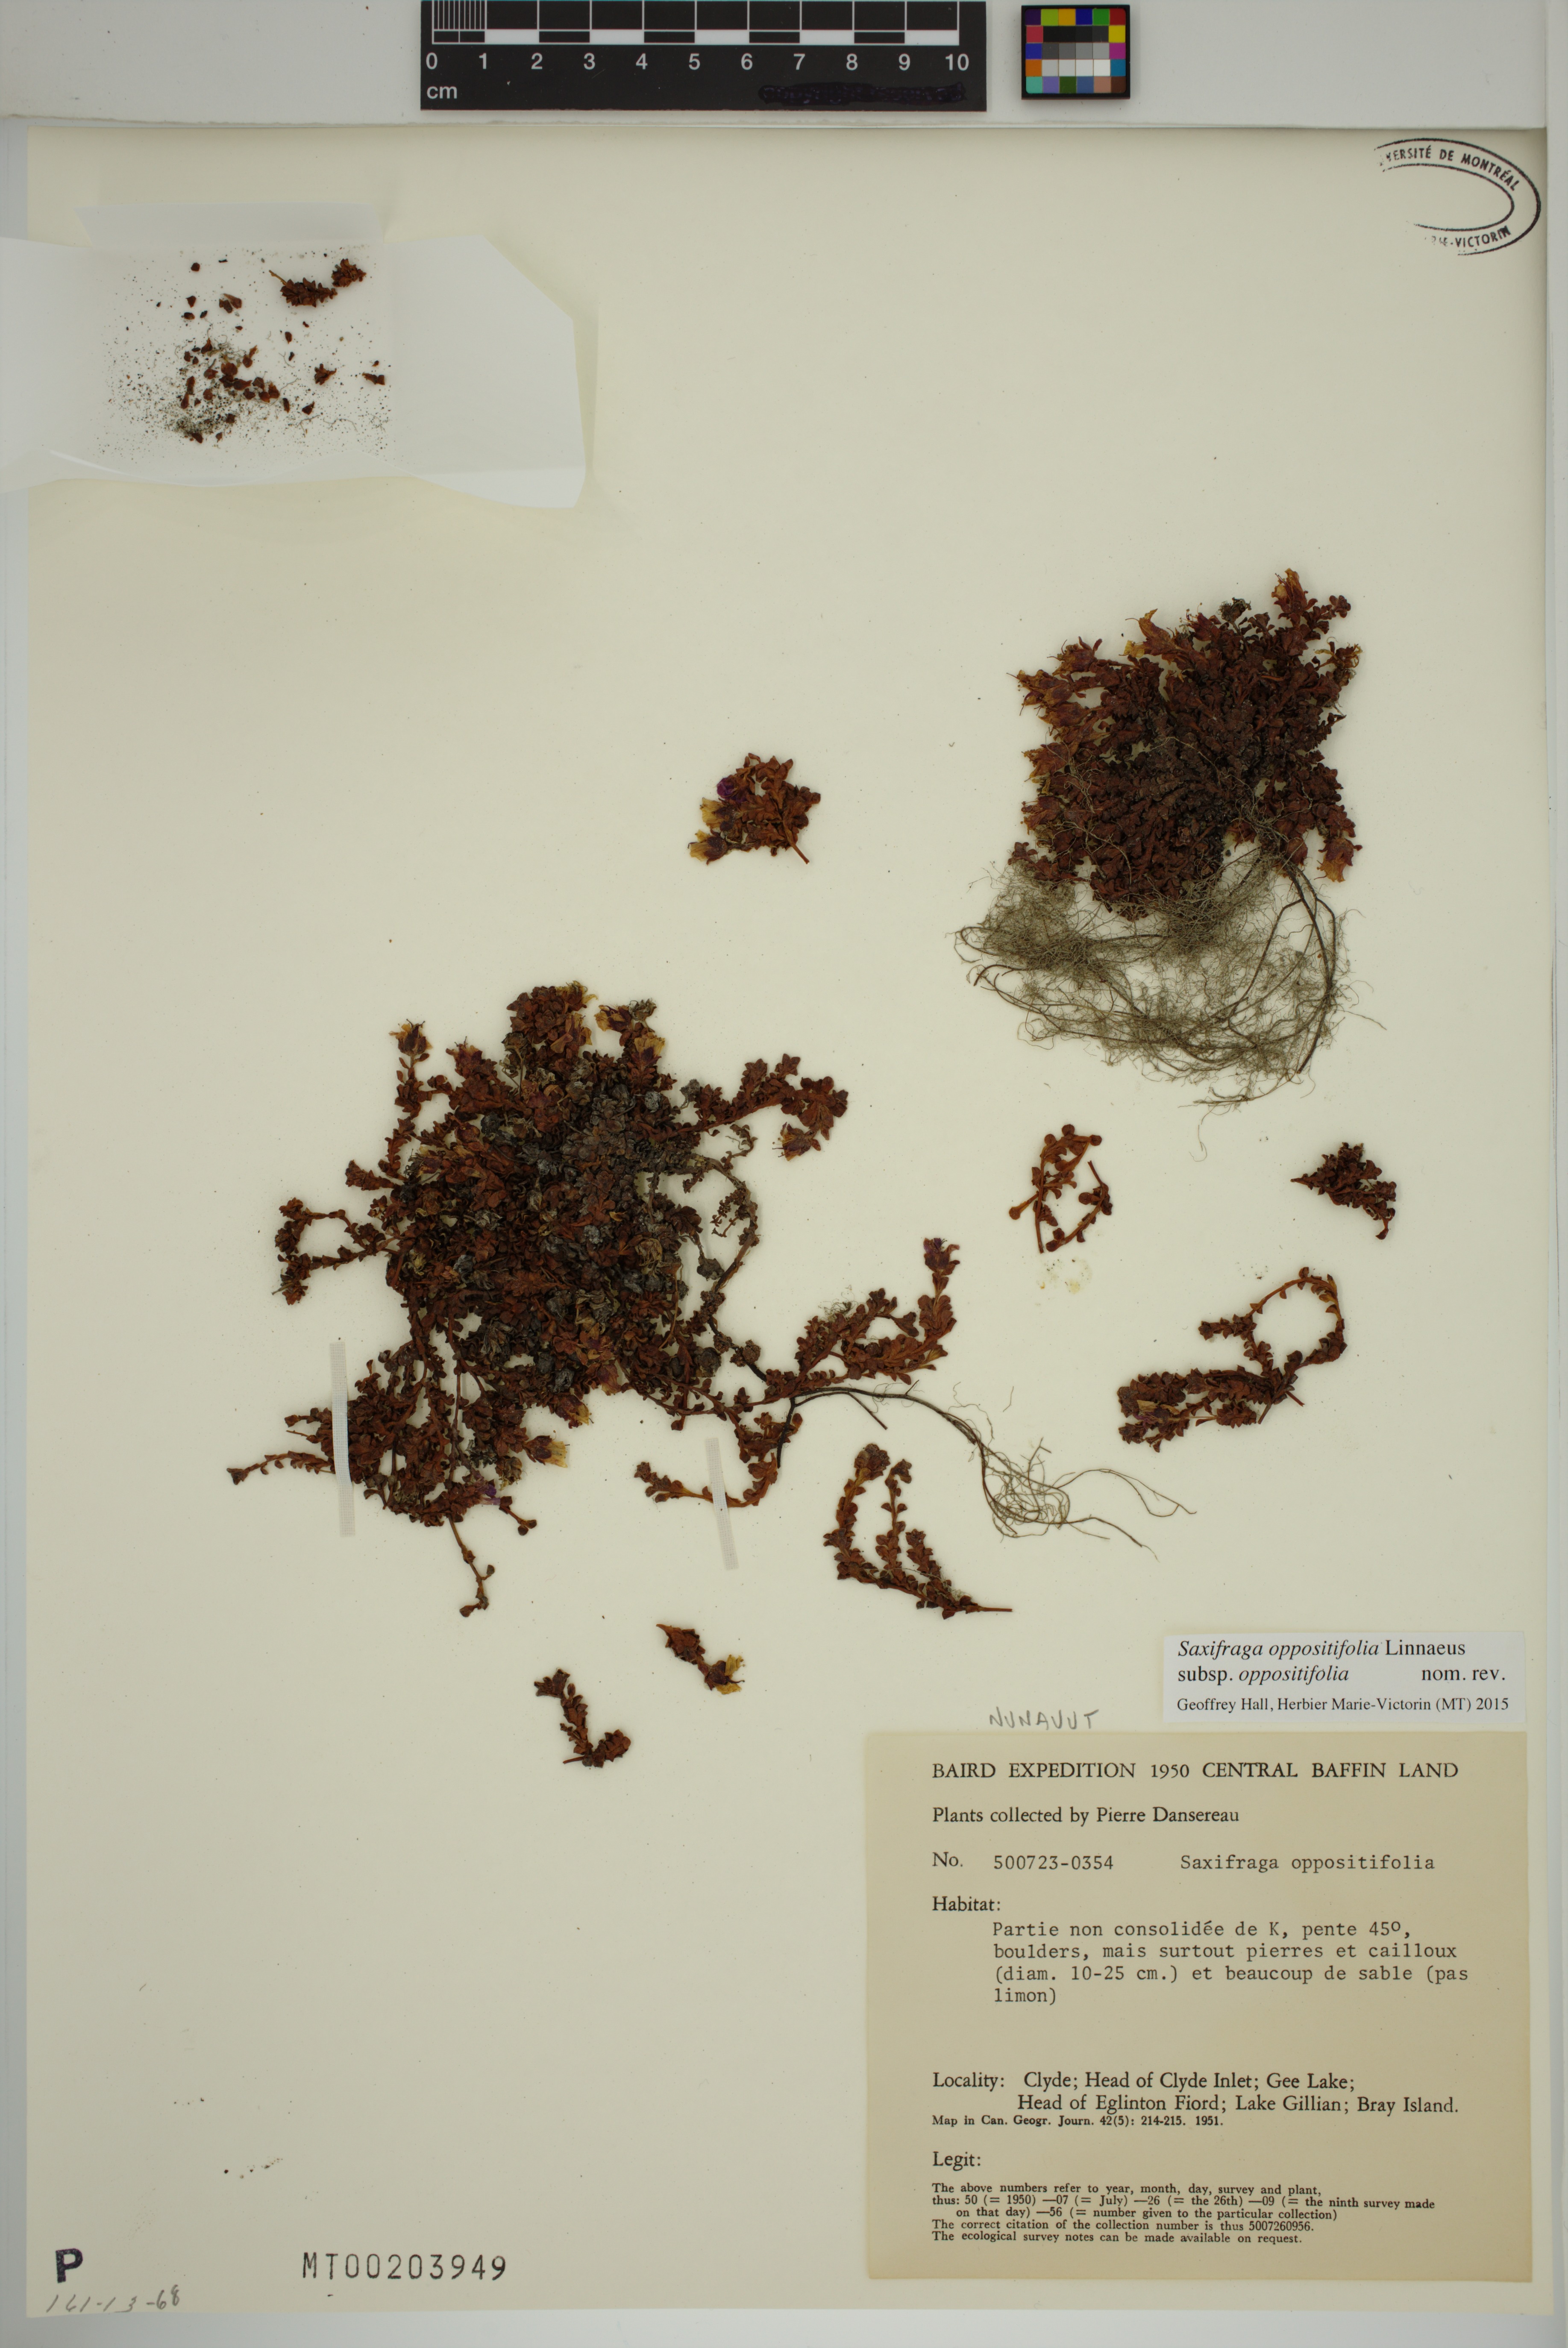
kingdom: Plantae
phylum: Tracheophyta
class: Magnoliopsida
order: Saxifragales
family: Saxifragaceae
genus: Saxifraga
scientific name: Saxifraga oppositifolia
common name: Purple saxifrage
